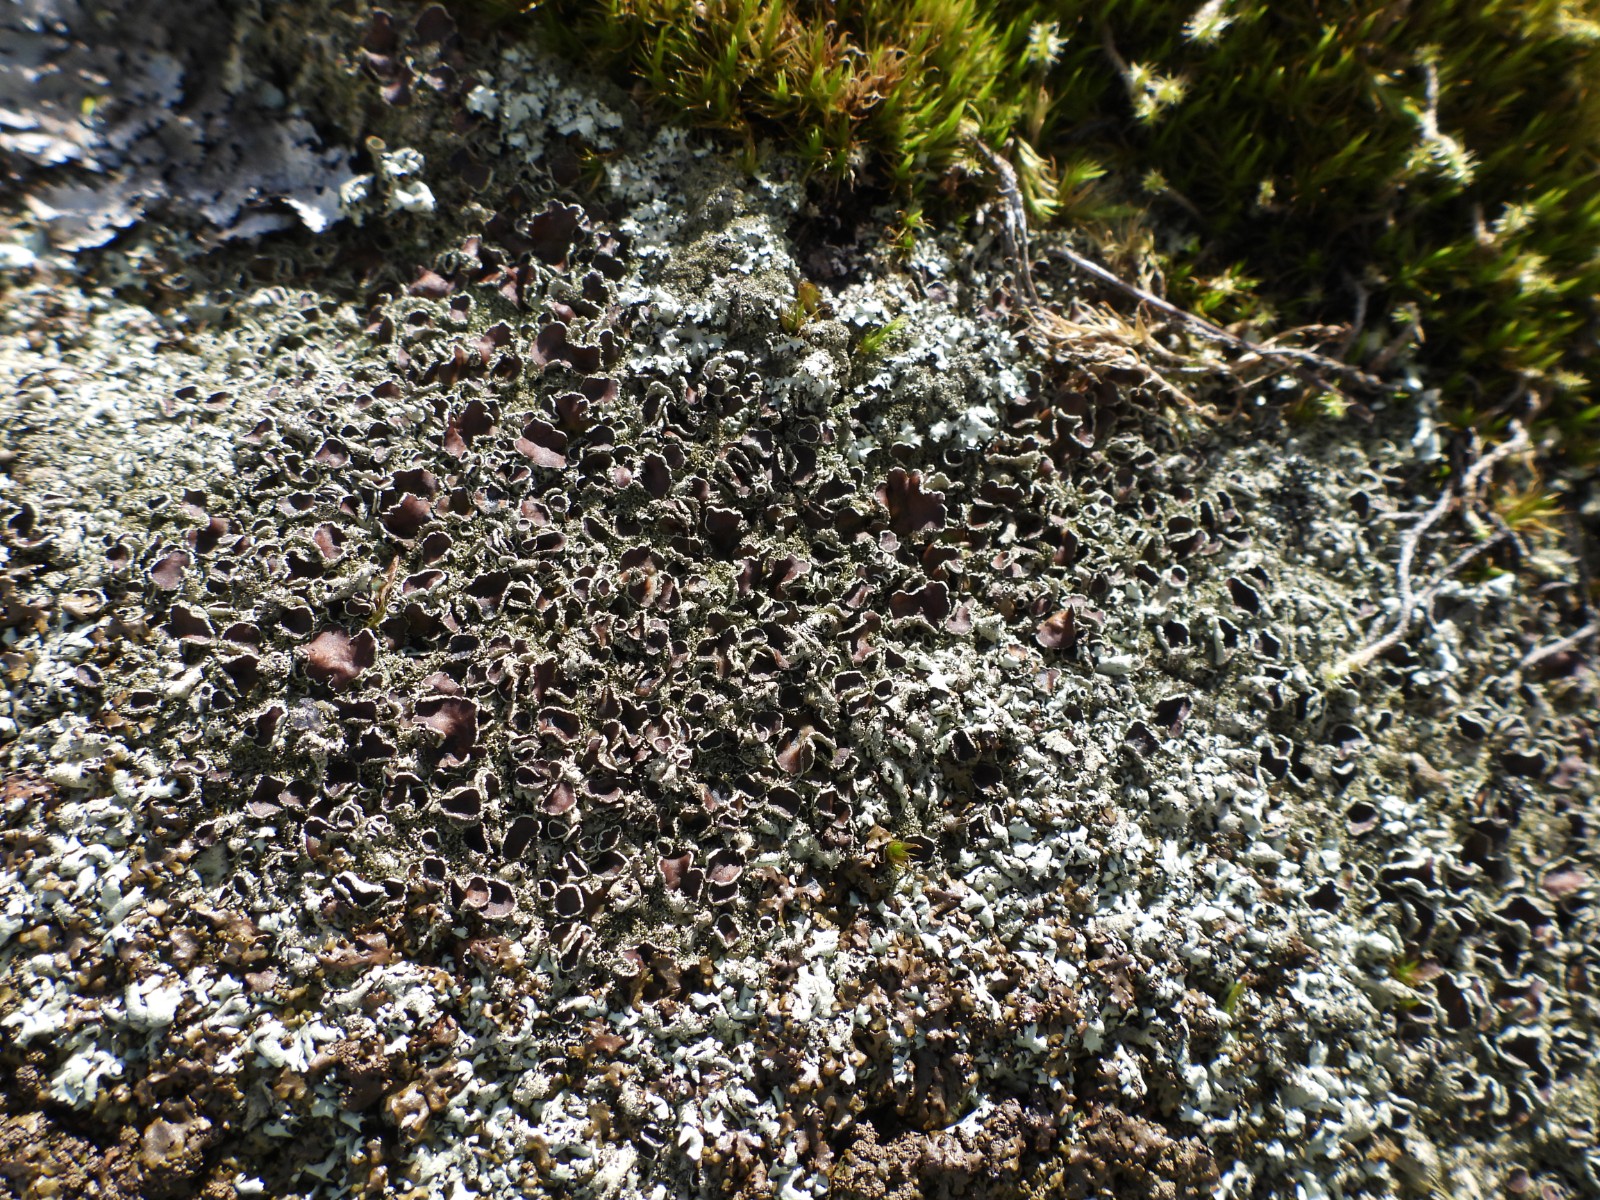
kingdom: Fungi
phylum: Ascomycota
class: Lecanoromycetes
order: Lecanorales
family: Parmeliaceae
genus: Xanthoparmelia
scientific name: Xanthoparmelia conspersa
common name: messing-skållav
